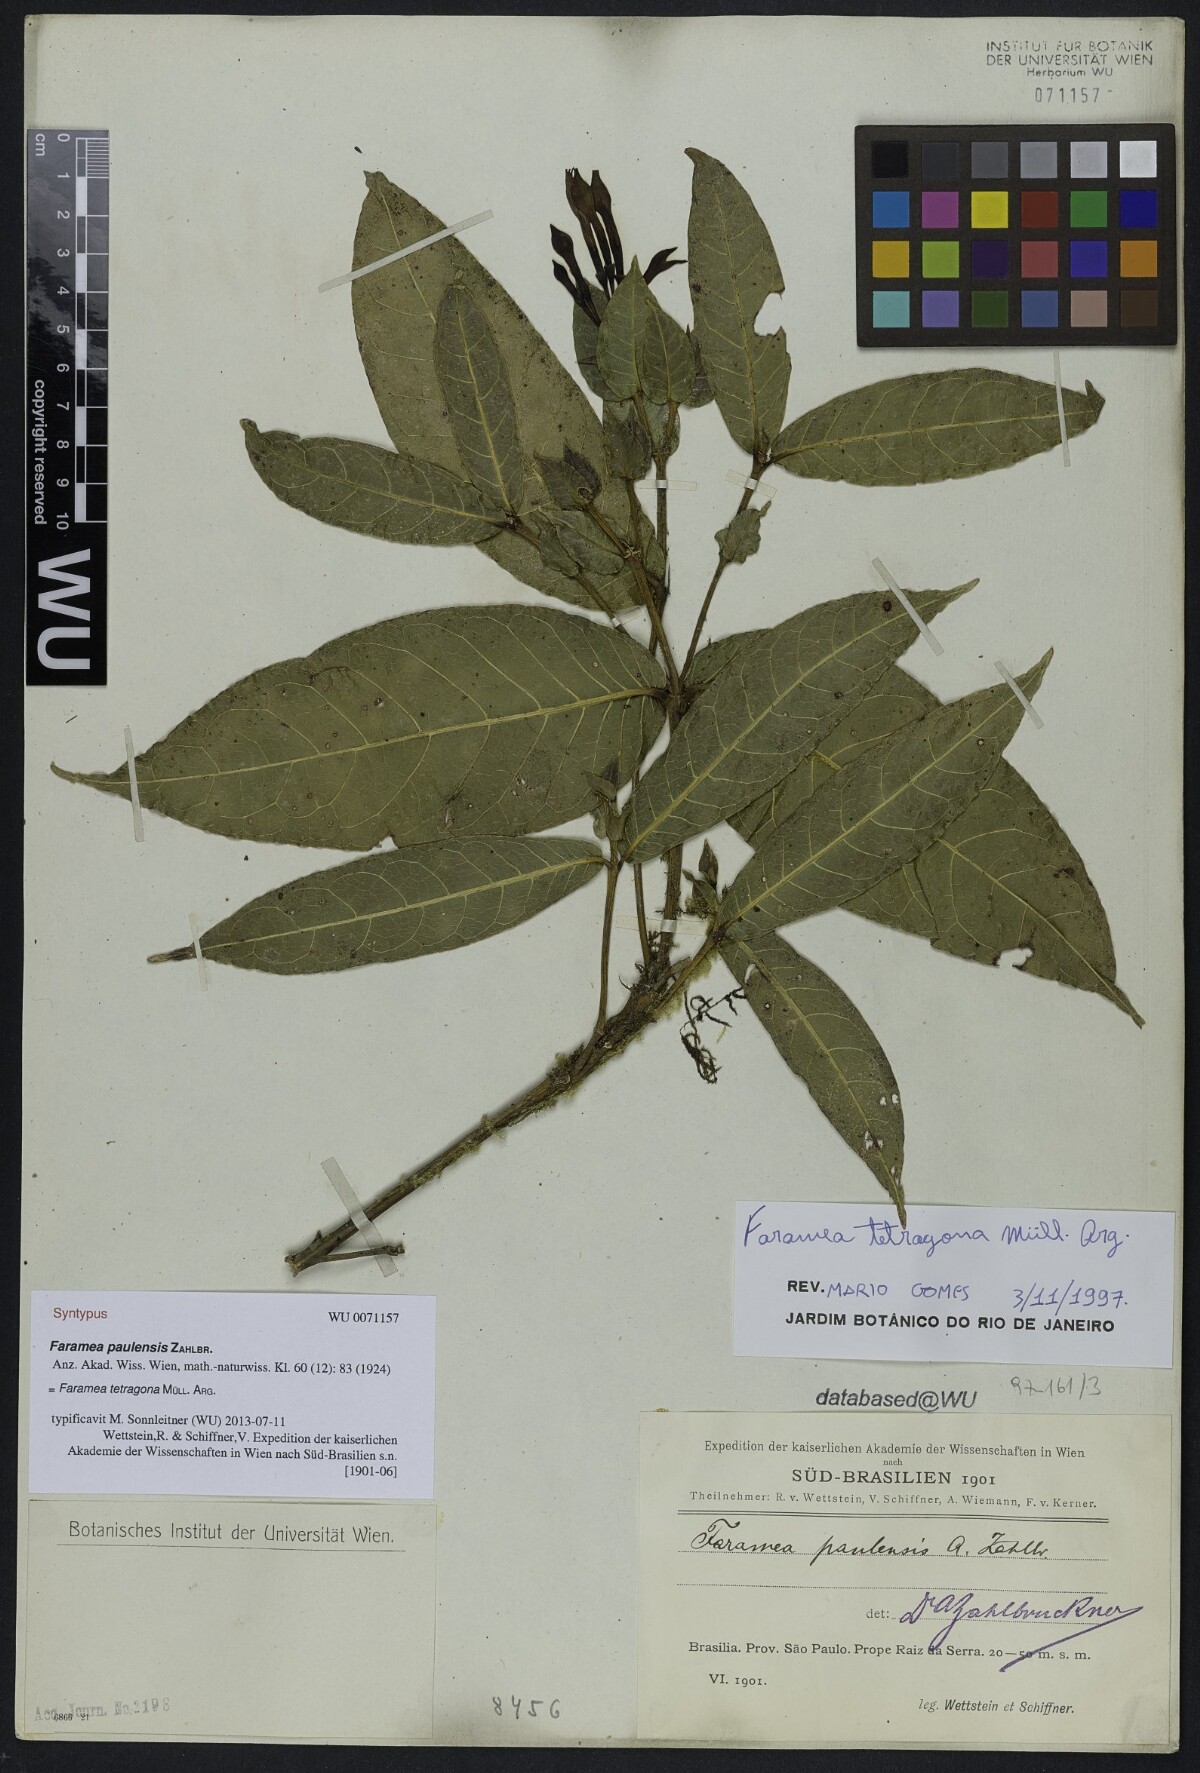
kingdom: Plantae
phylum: Tracheophyta
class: Magnoliopsida
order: Gentianales
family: Rubiaceae
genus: Faramea
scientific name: Faramea tetragona
